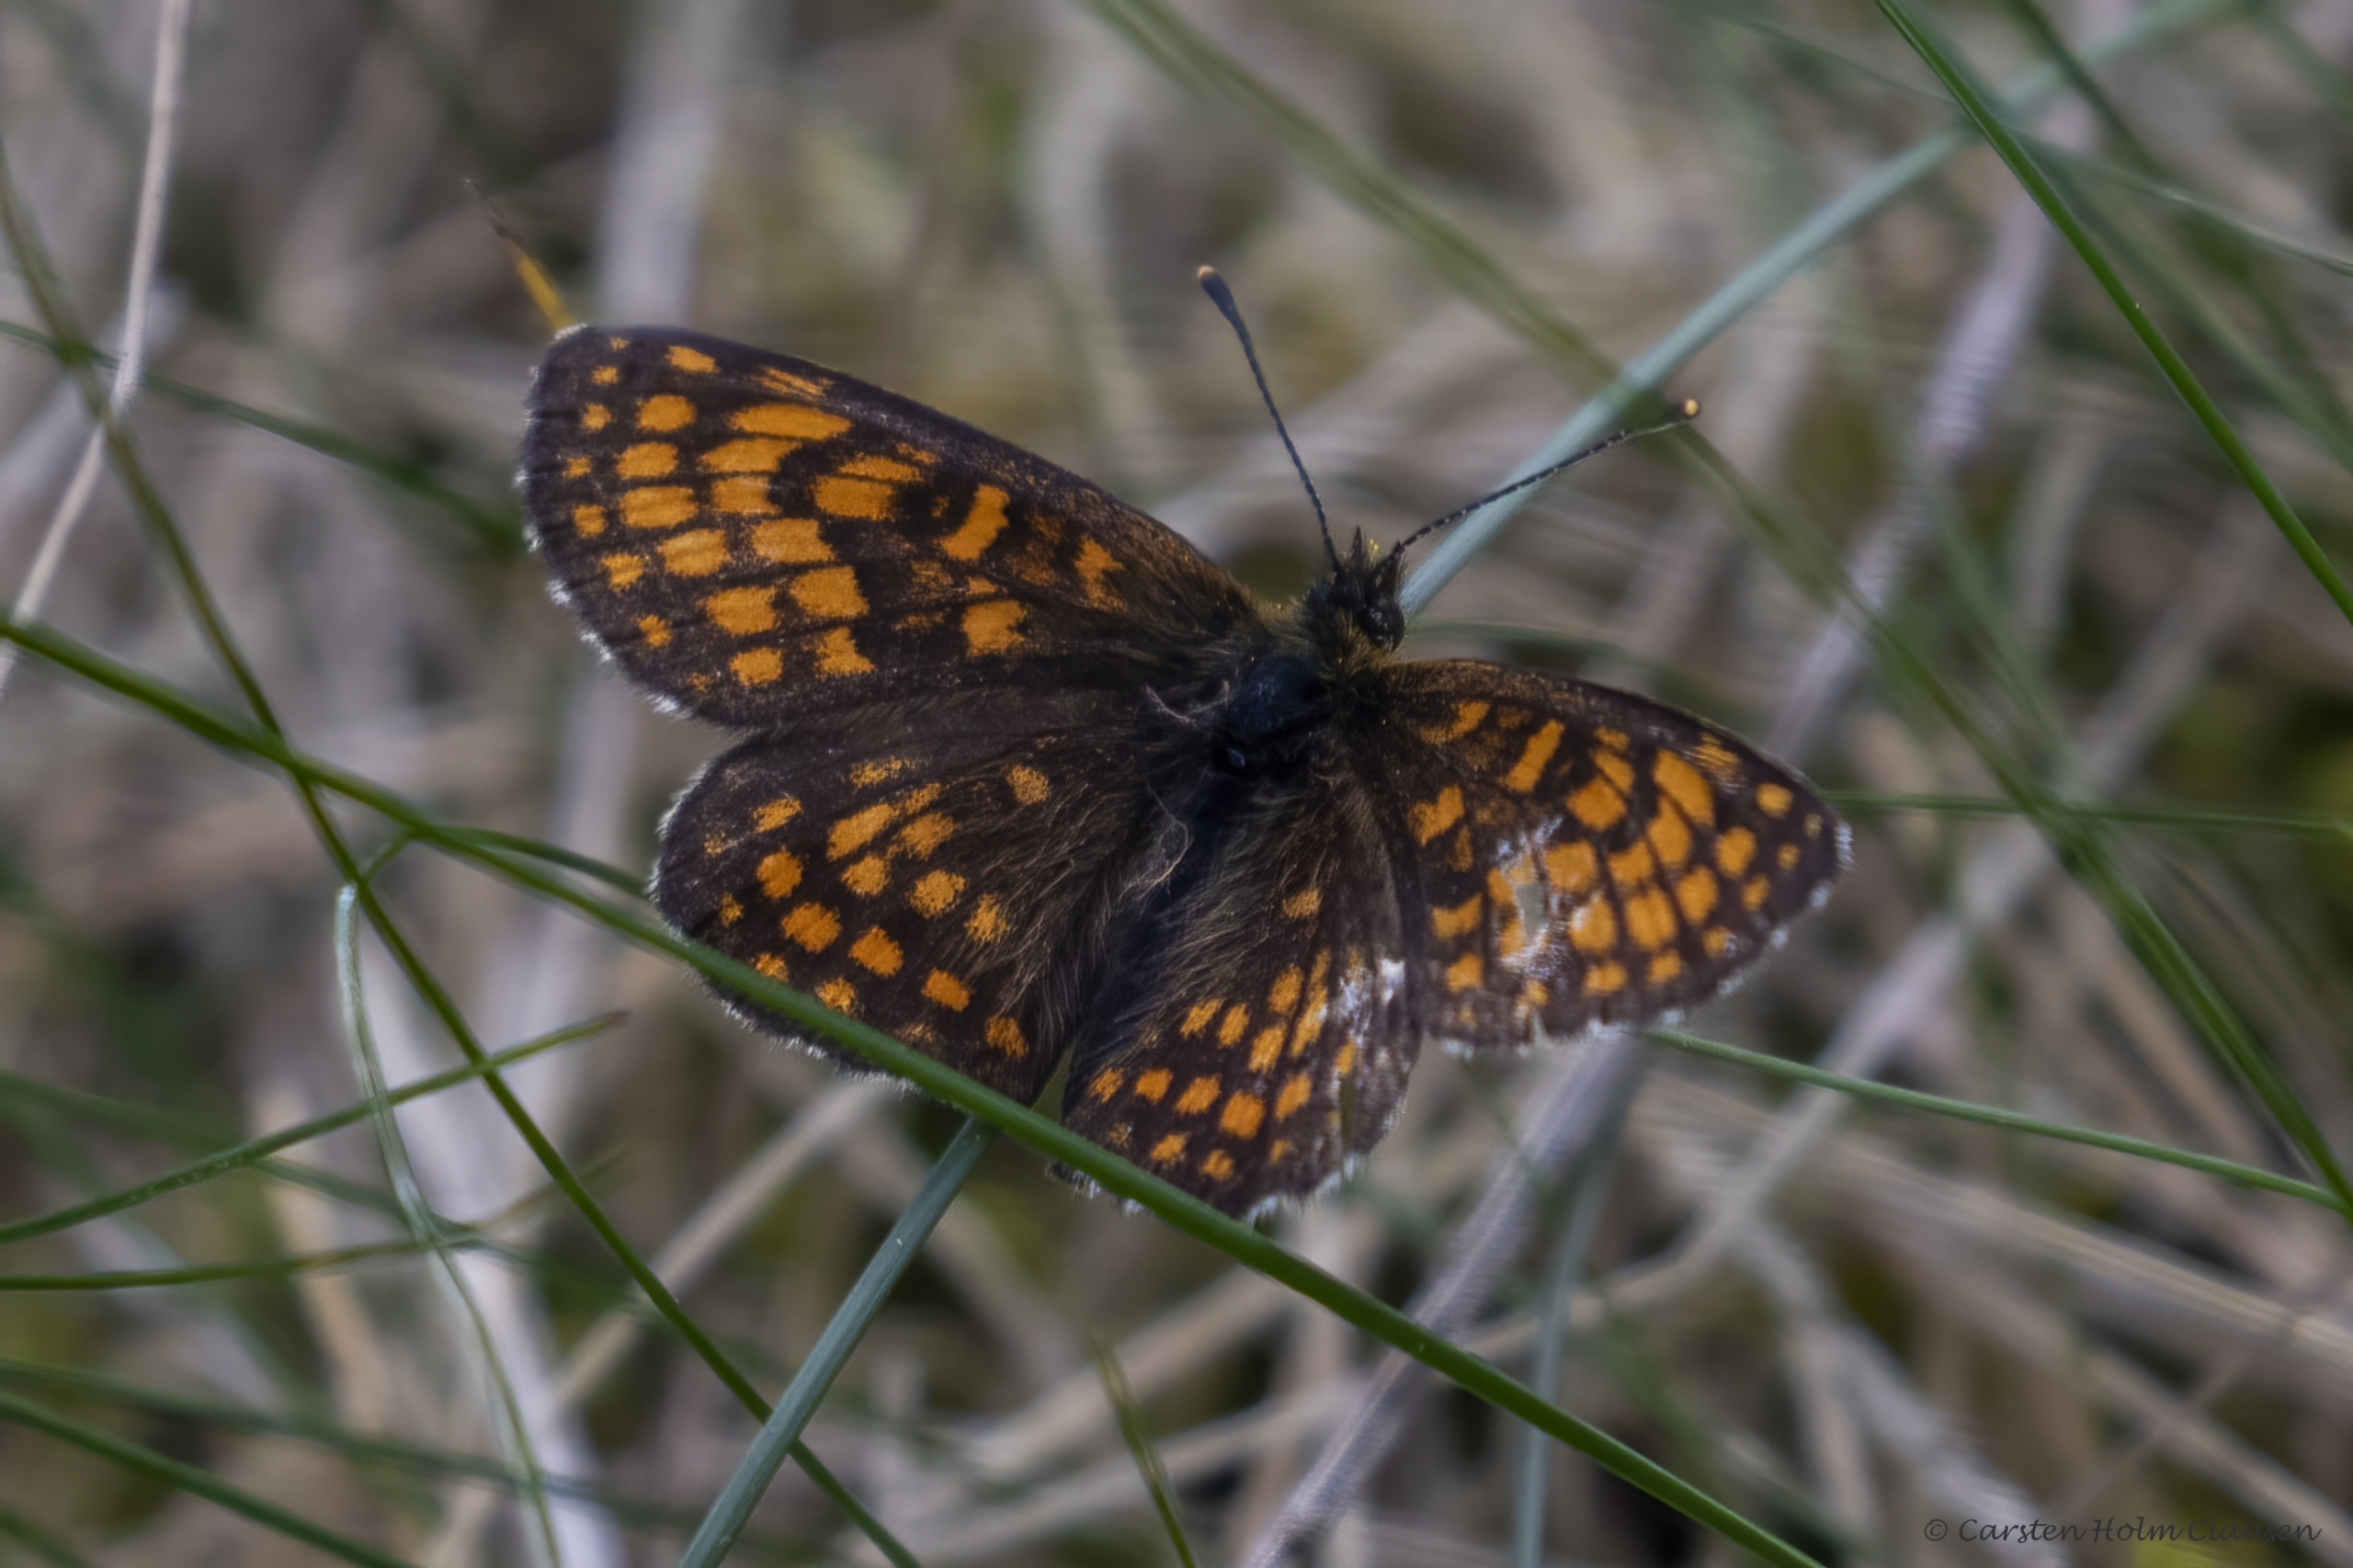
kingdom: Animalia
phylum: Arthropoda
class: Insecta
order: Lepidoptera
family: Nymphalidae
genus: Mellicta
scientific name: Mellicta athalia
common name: Brun pletvinge
